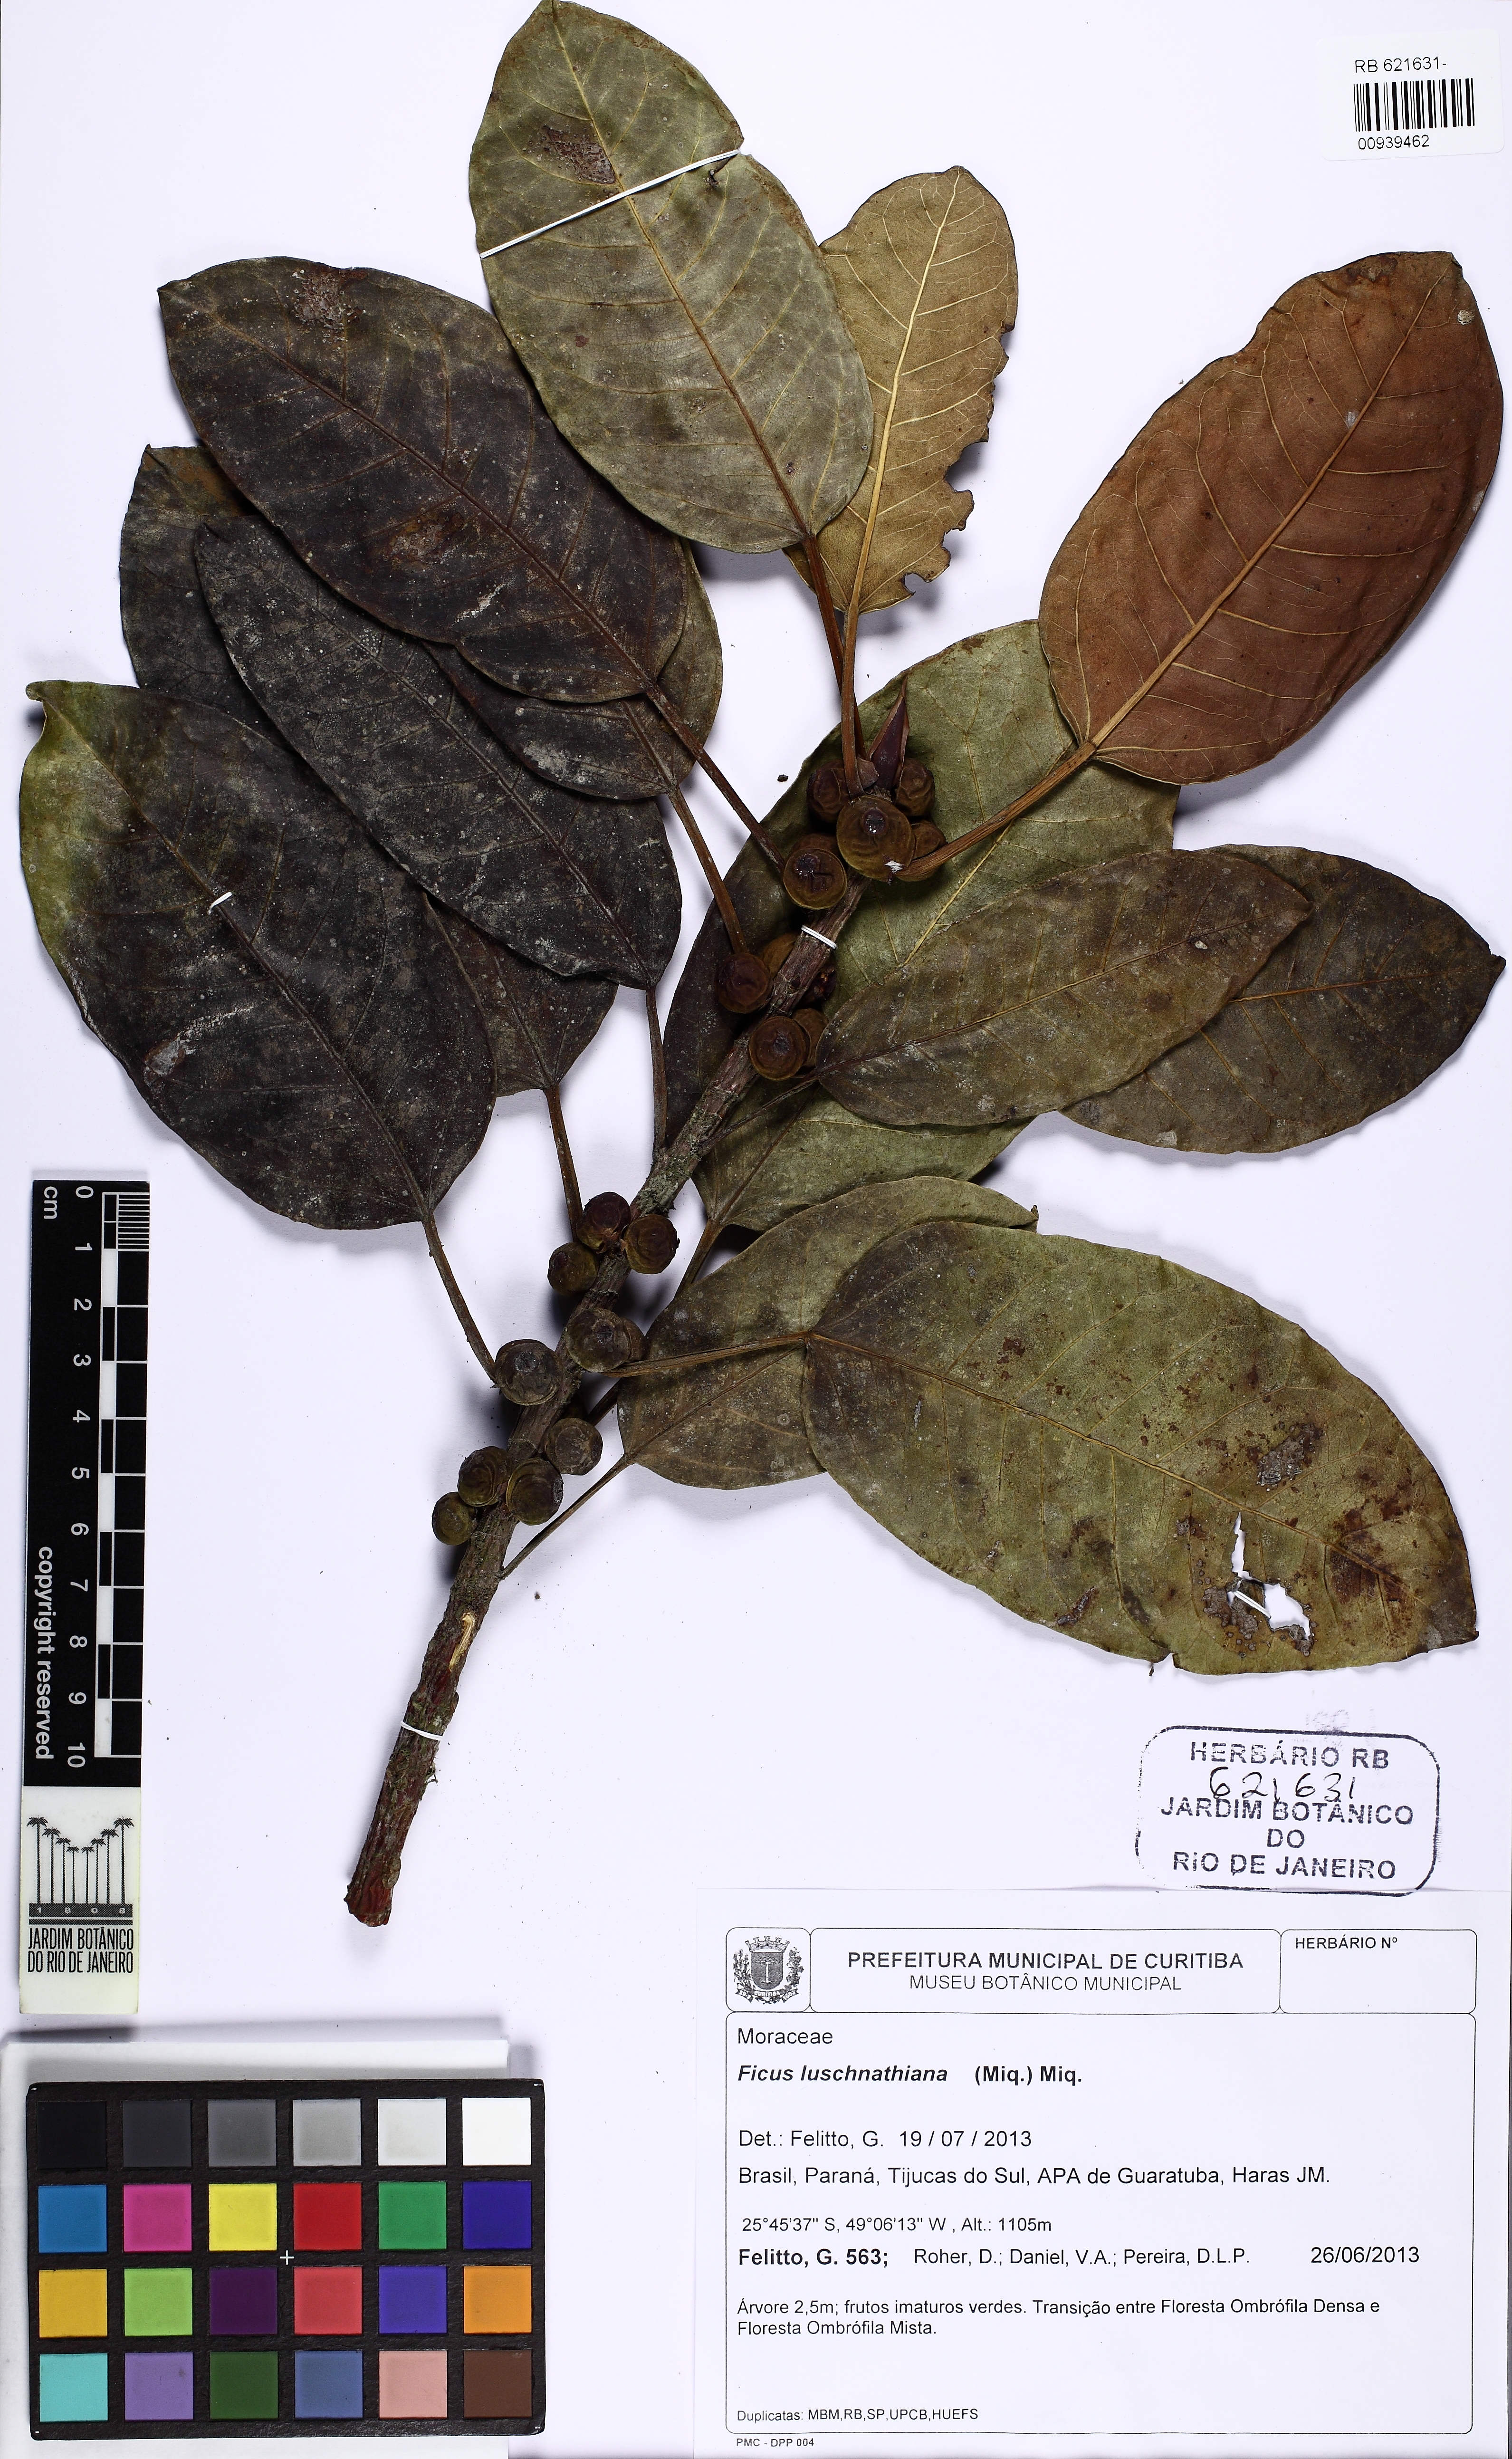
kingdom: Plantae
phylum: Tracheophyta
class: Magnoliopsida
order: Rosales
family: Moraceae
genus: Ficus
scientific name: Ficus luschnathiana
